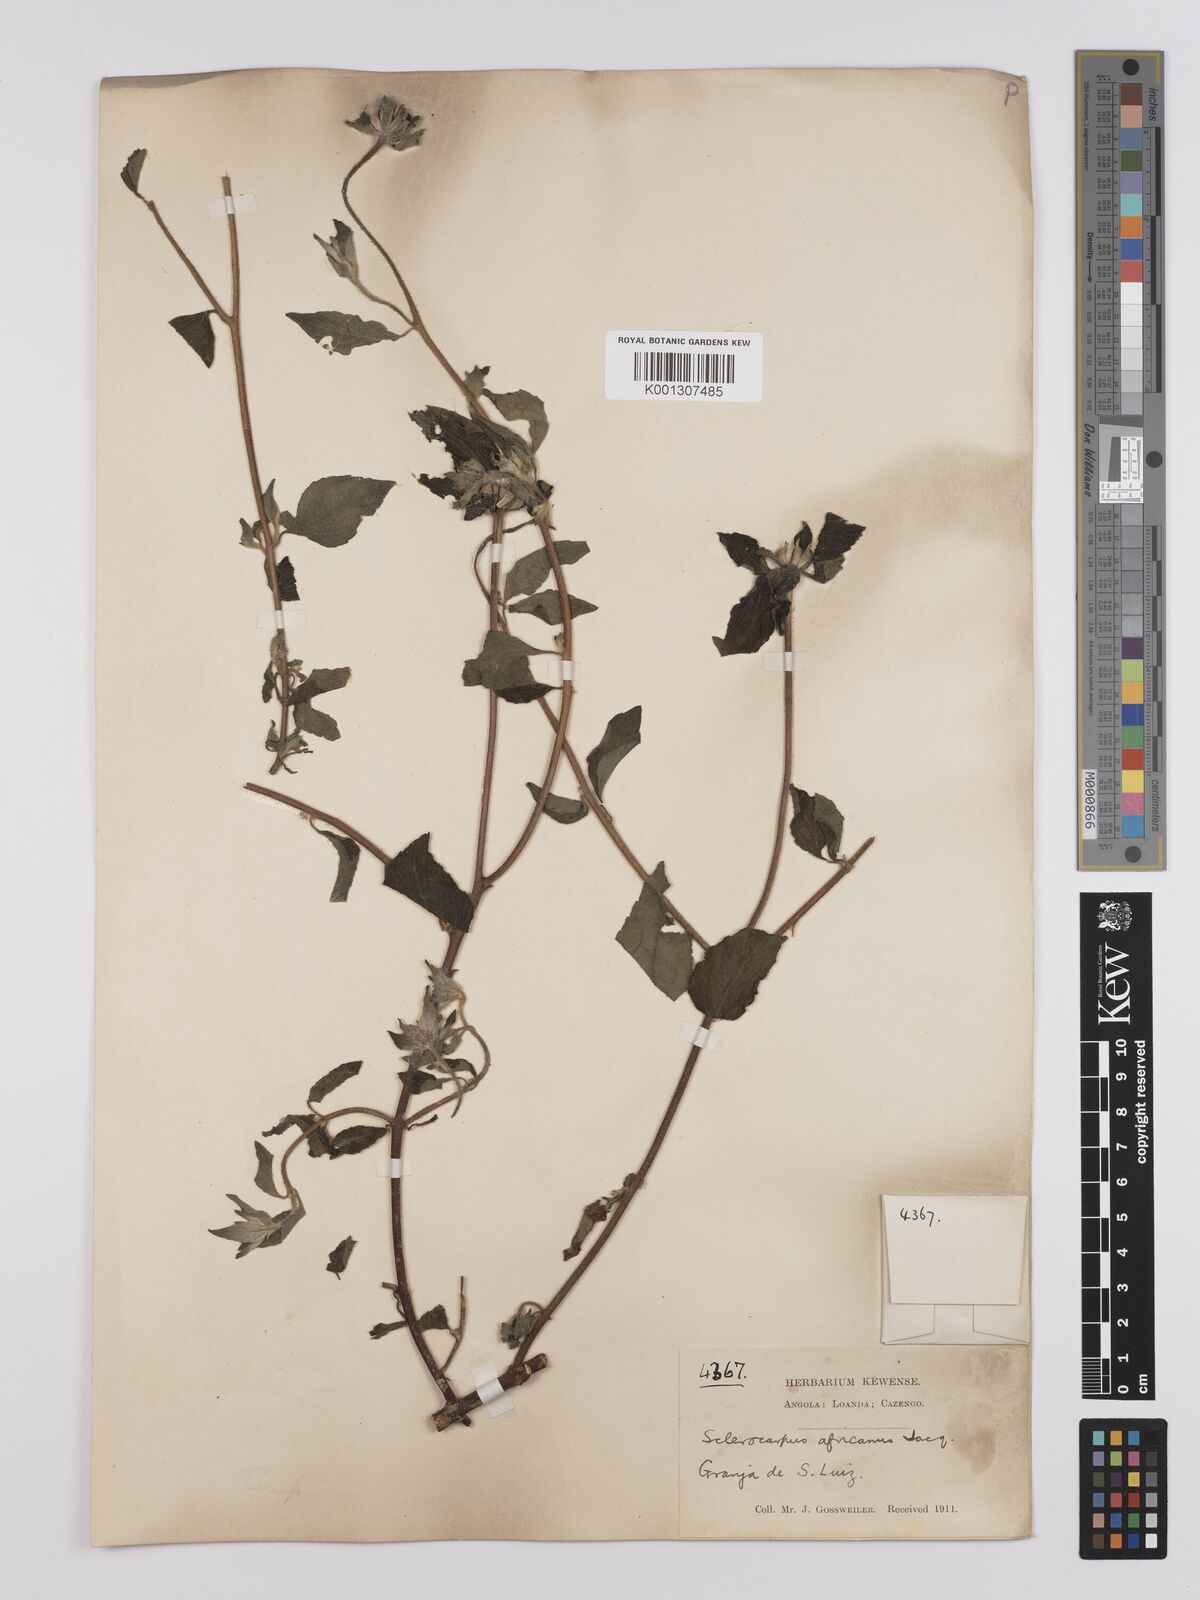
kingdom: Plantae
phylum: Tracheophyta
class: Magnoliopsida
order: Asterales
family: Asteraceae
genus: Sclerocarpus
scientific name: Sclerocarpus africanus
